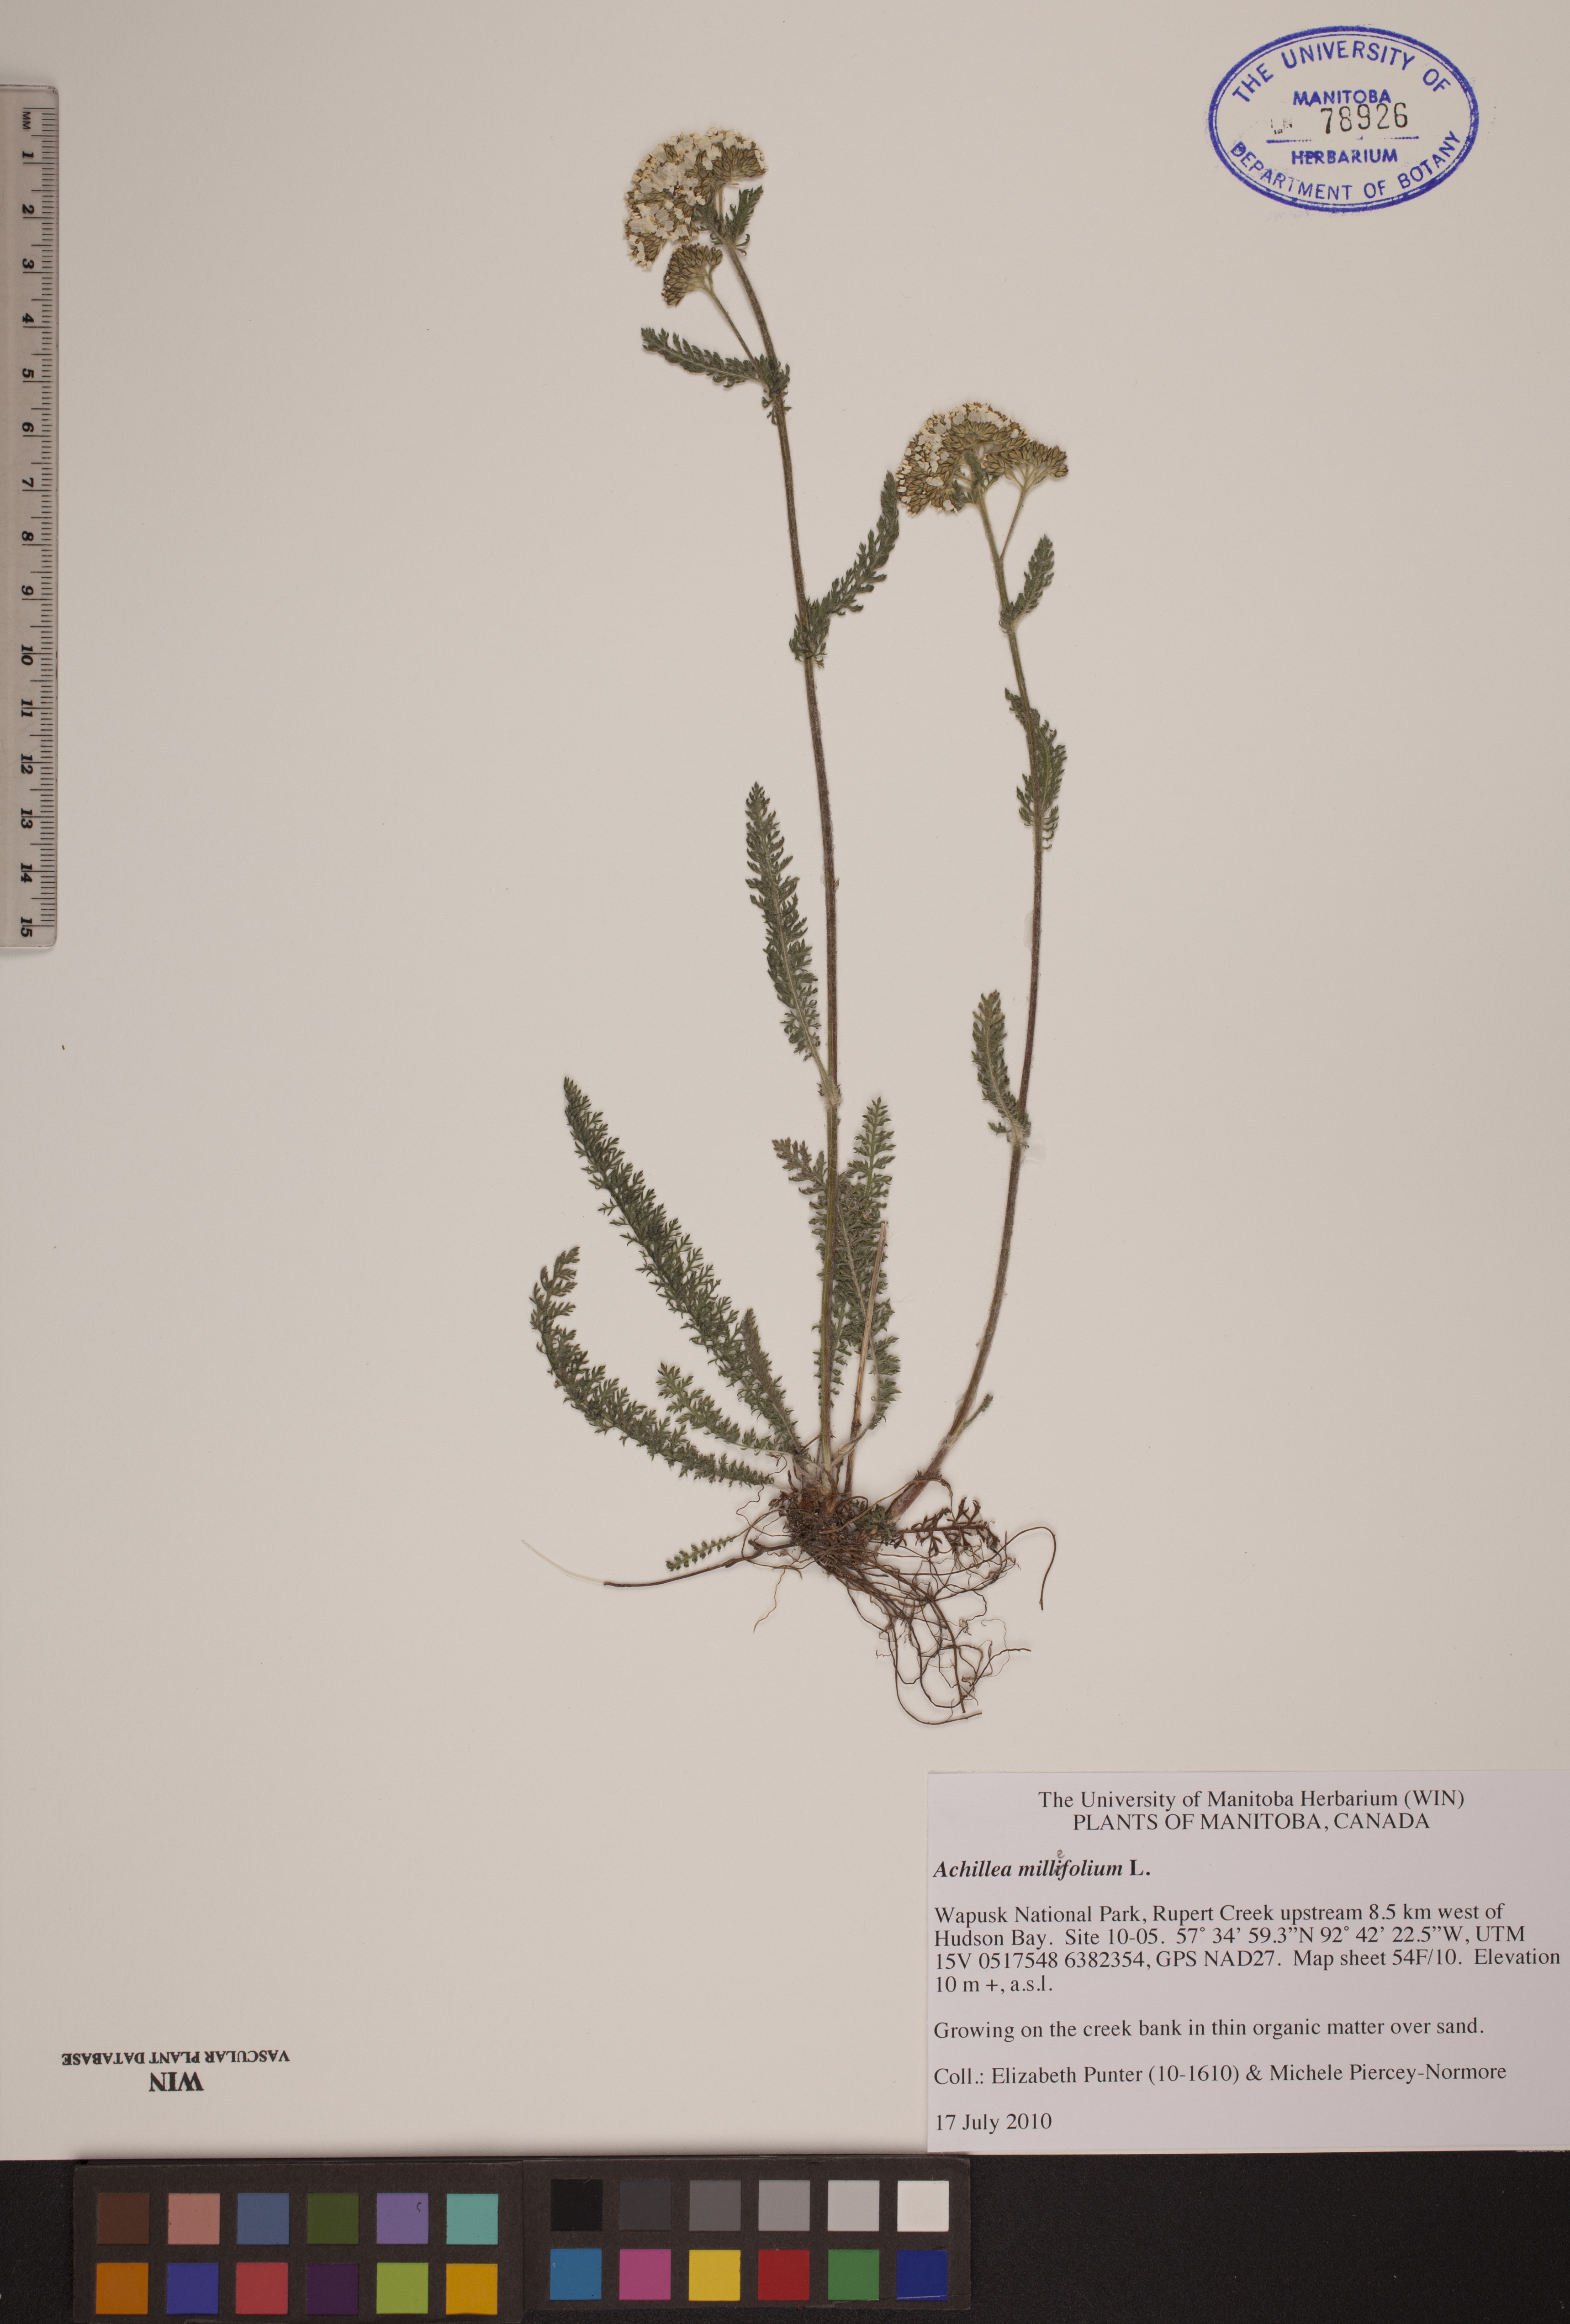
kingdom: Plantae
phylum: Tracheophyta
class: Magnoliopsida
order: Asterales
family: Asteraceae
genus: Achillea
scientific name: Achillea millefolium
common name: Yarrow
